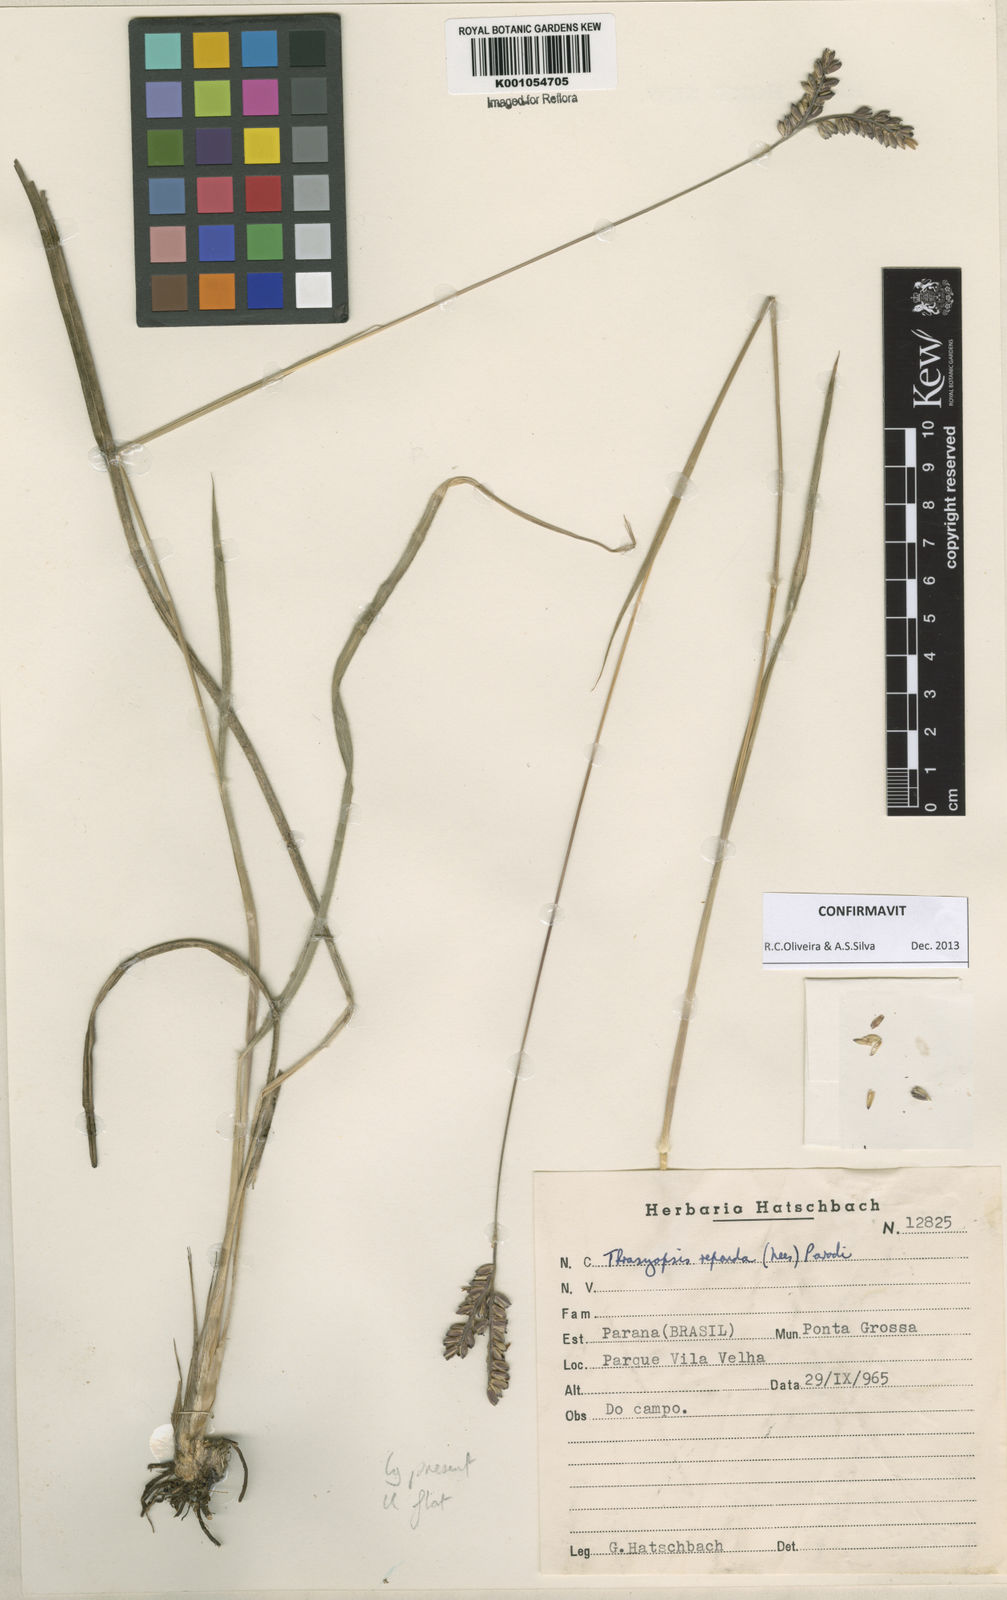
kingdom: Plantae
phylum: Tracheophyta
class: Liliopsida
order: Poales
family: Poaceae
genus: Paspalum
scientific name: Paspalum repandum
